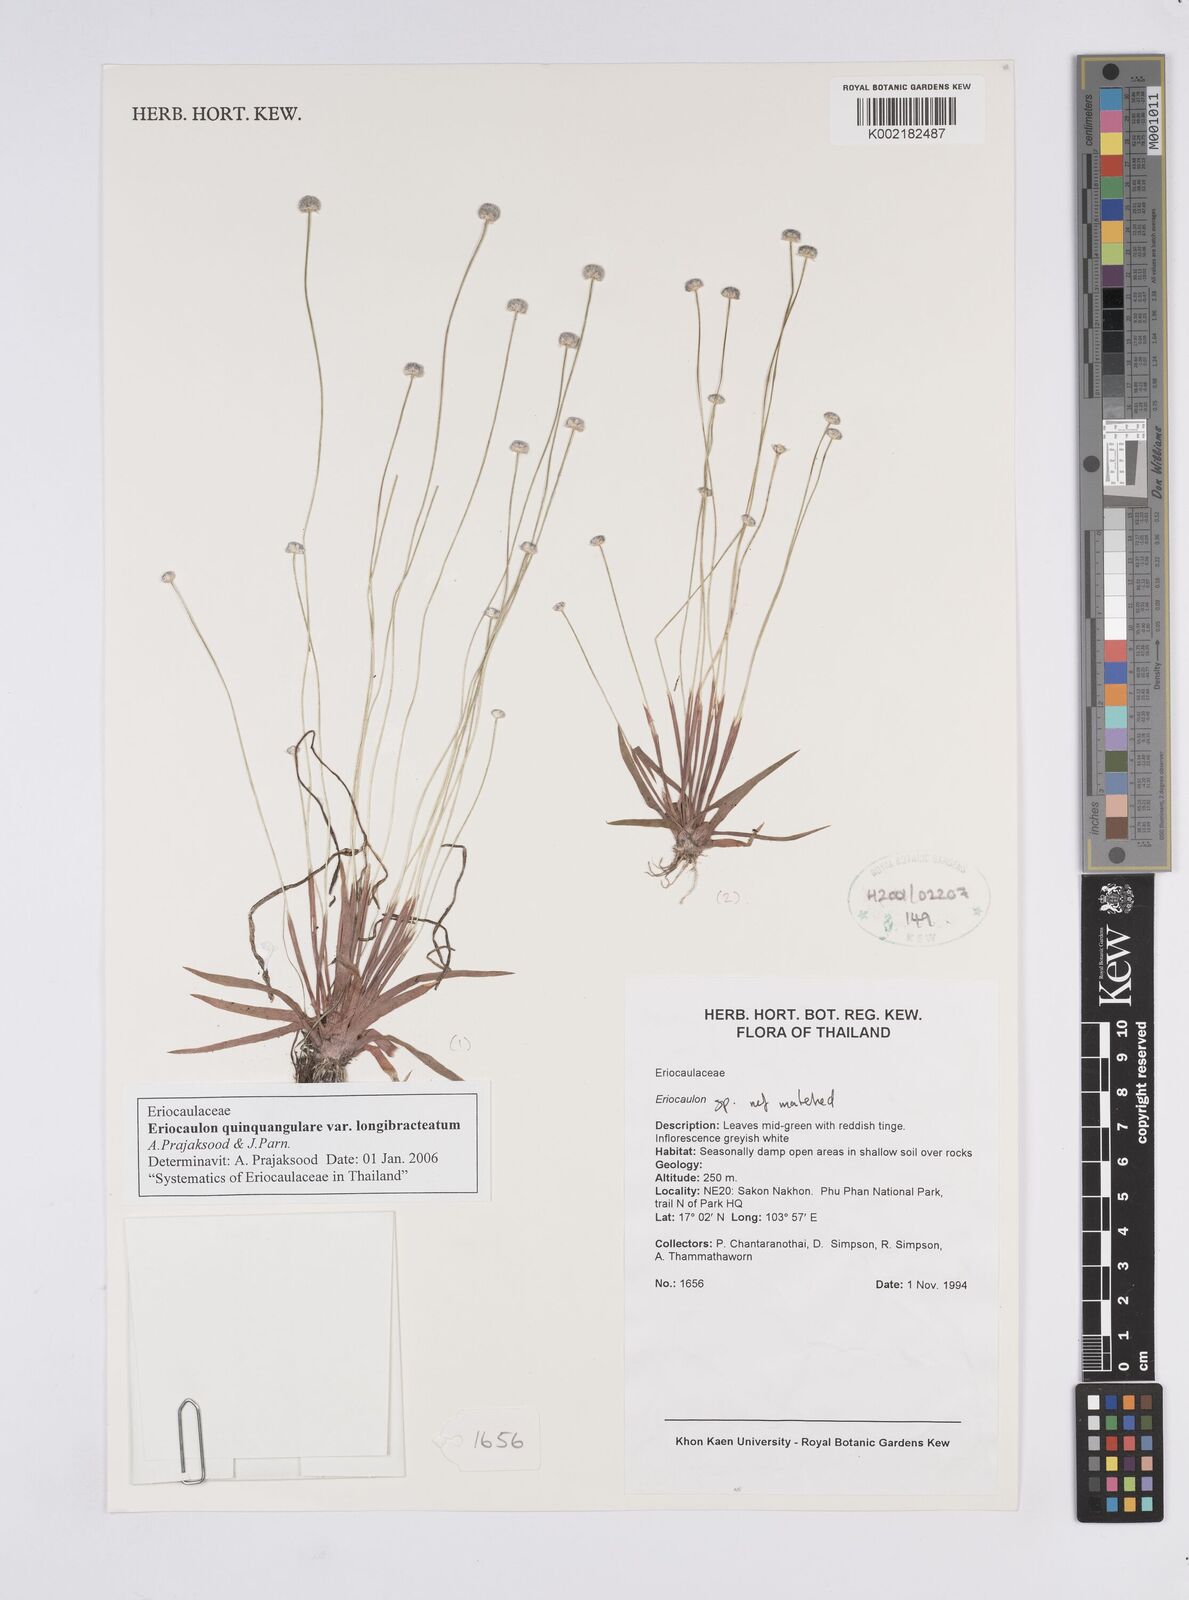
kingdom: Plantae
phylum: Tracheophyta
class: Liliopsida
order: Poales
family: Eriocaulaceae
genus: Eriocaulon
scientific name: Eriocaulon quinquangulare
